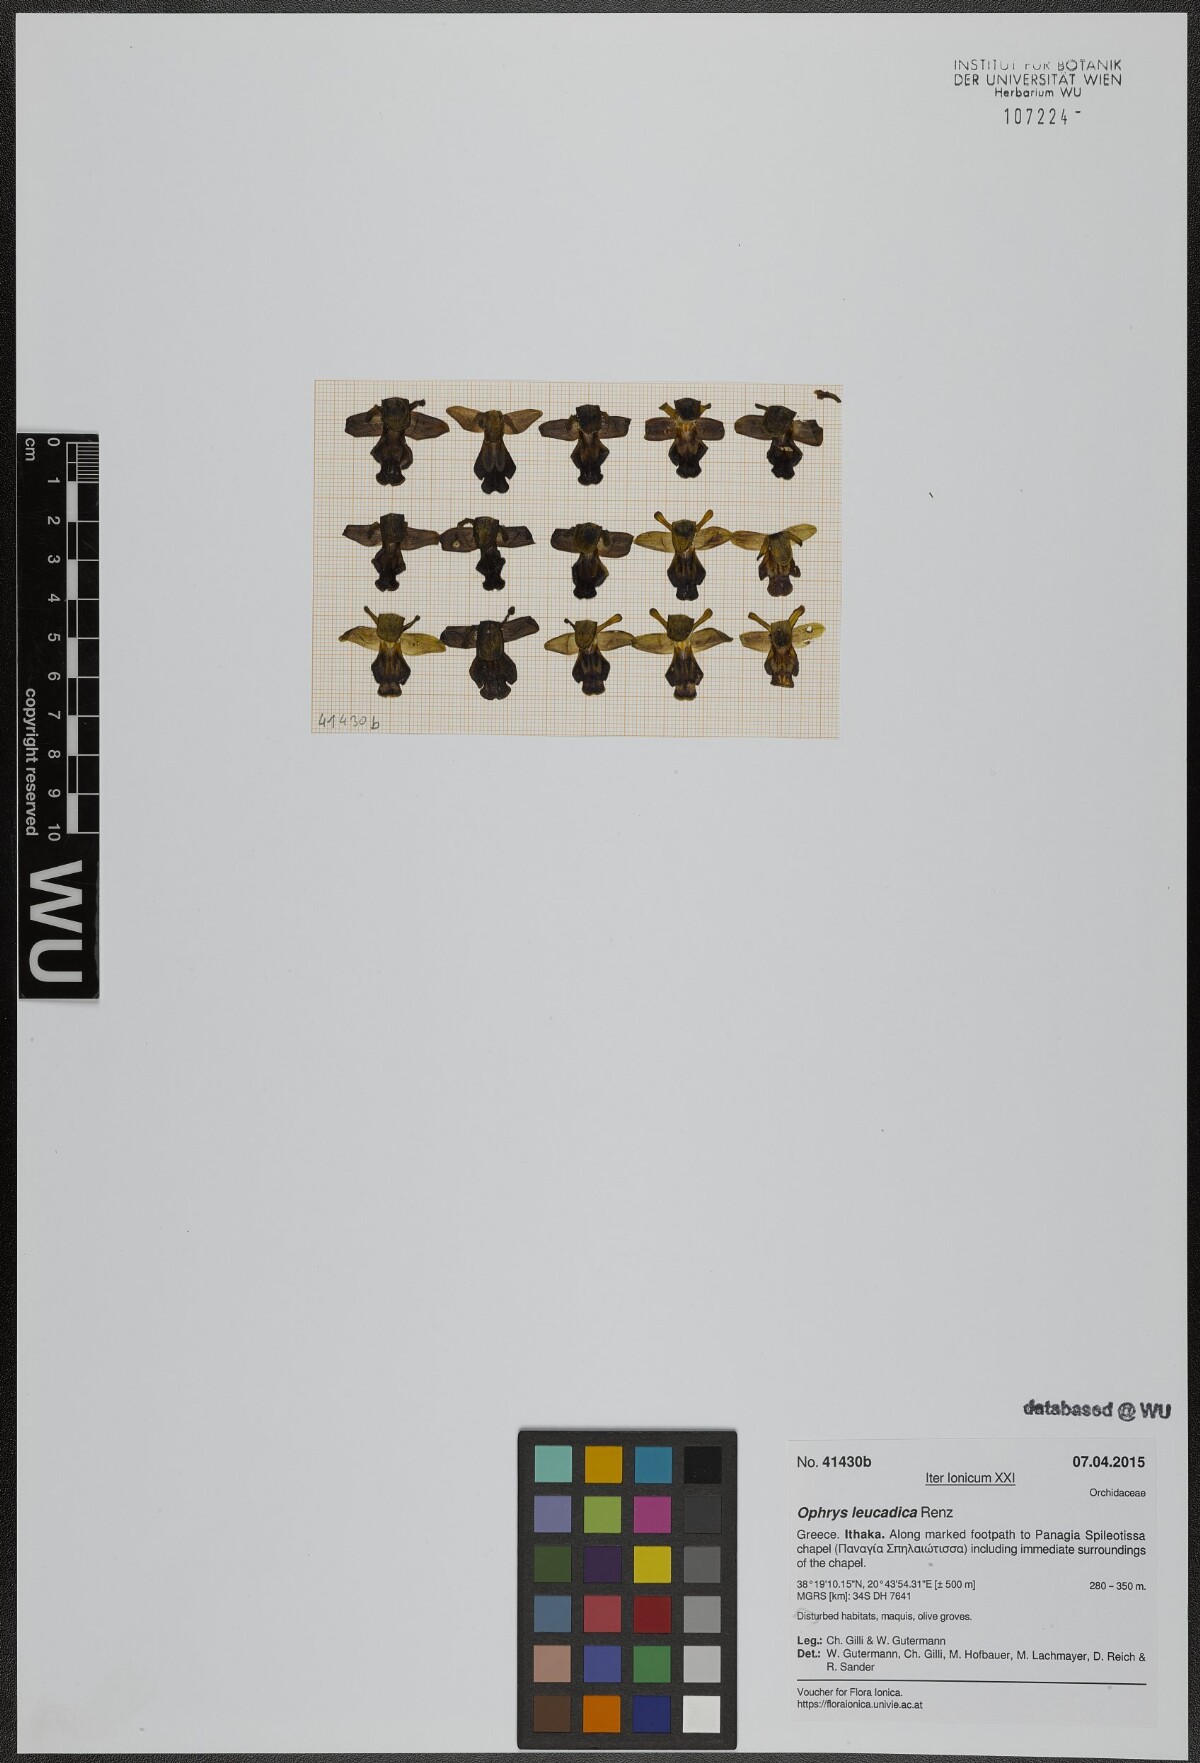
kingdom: Plantae
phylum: Tracheophyta
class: Liliopsida
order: Asparagales
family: Orchidaceae
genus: Ophrys
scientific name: Ophrys fusca
